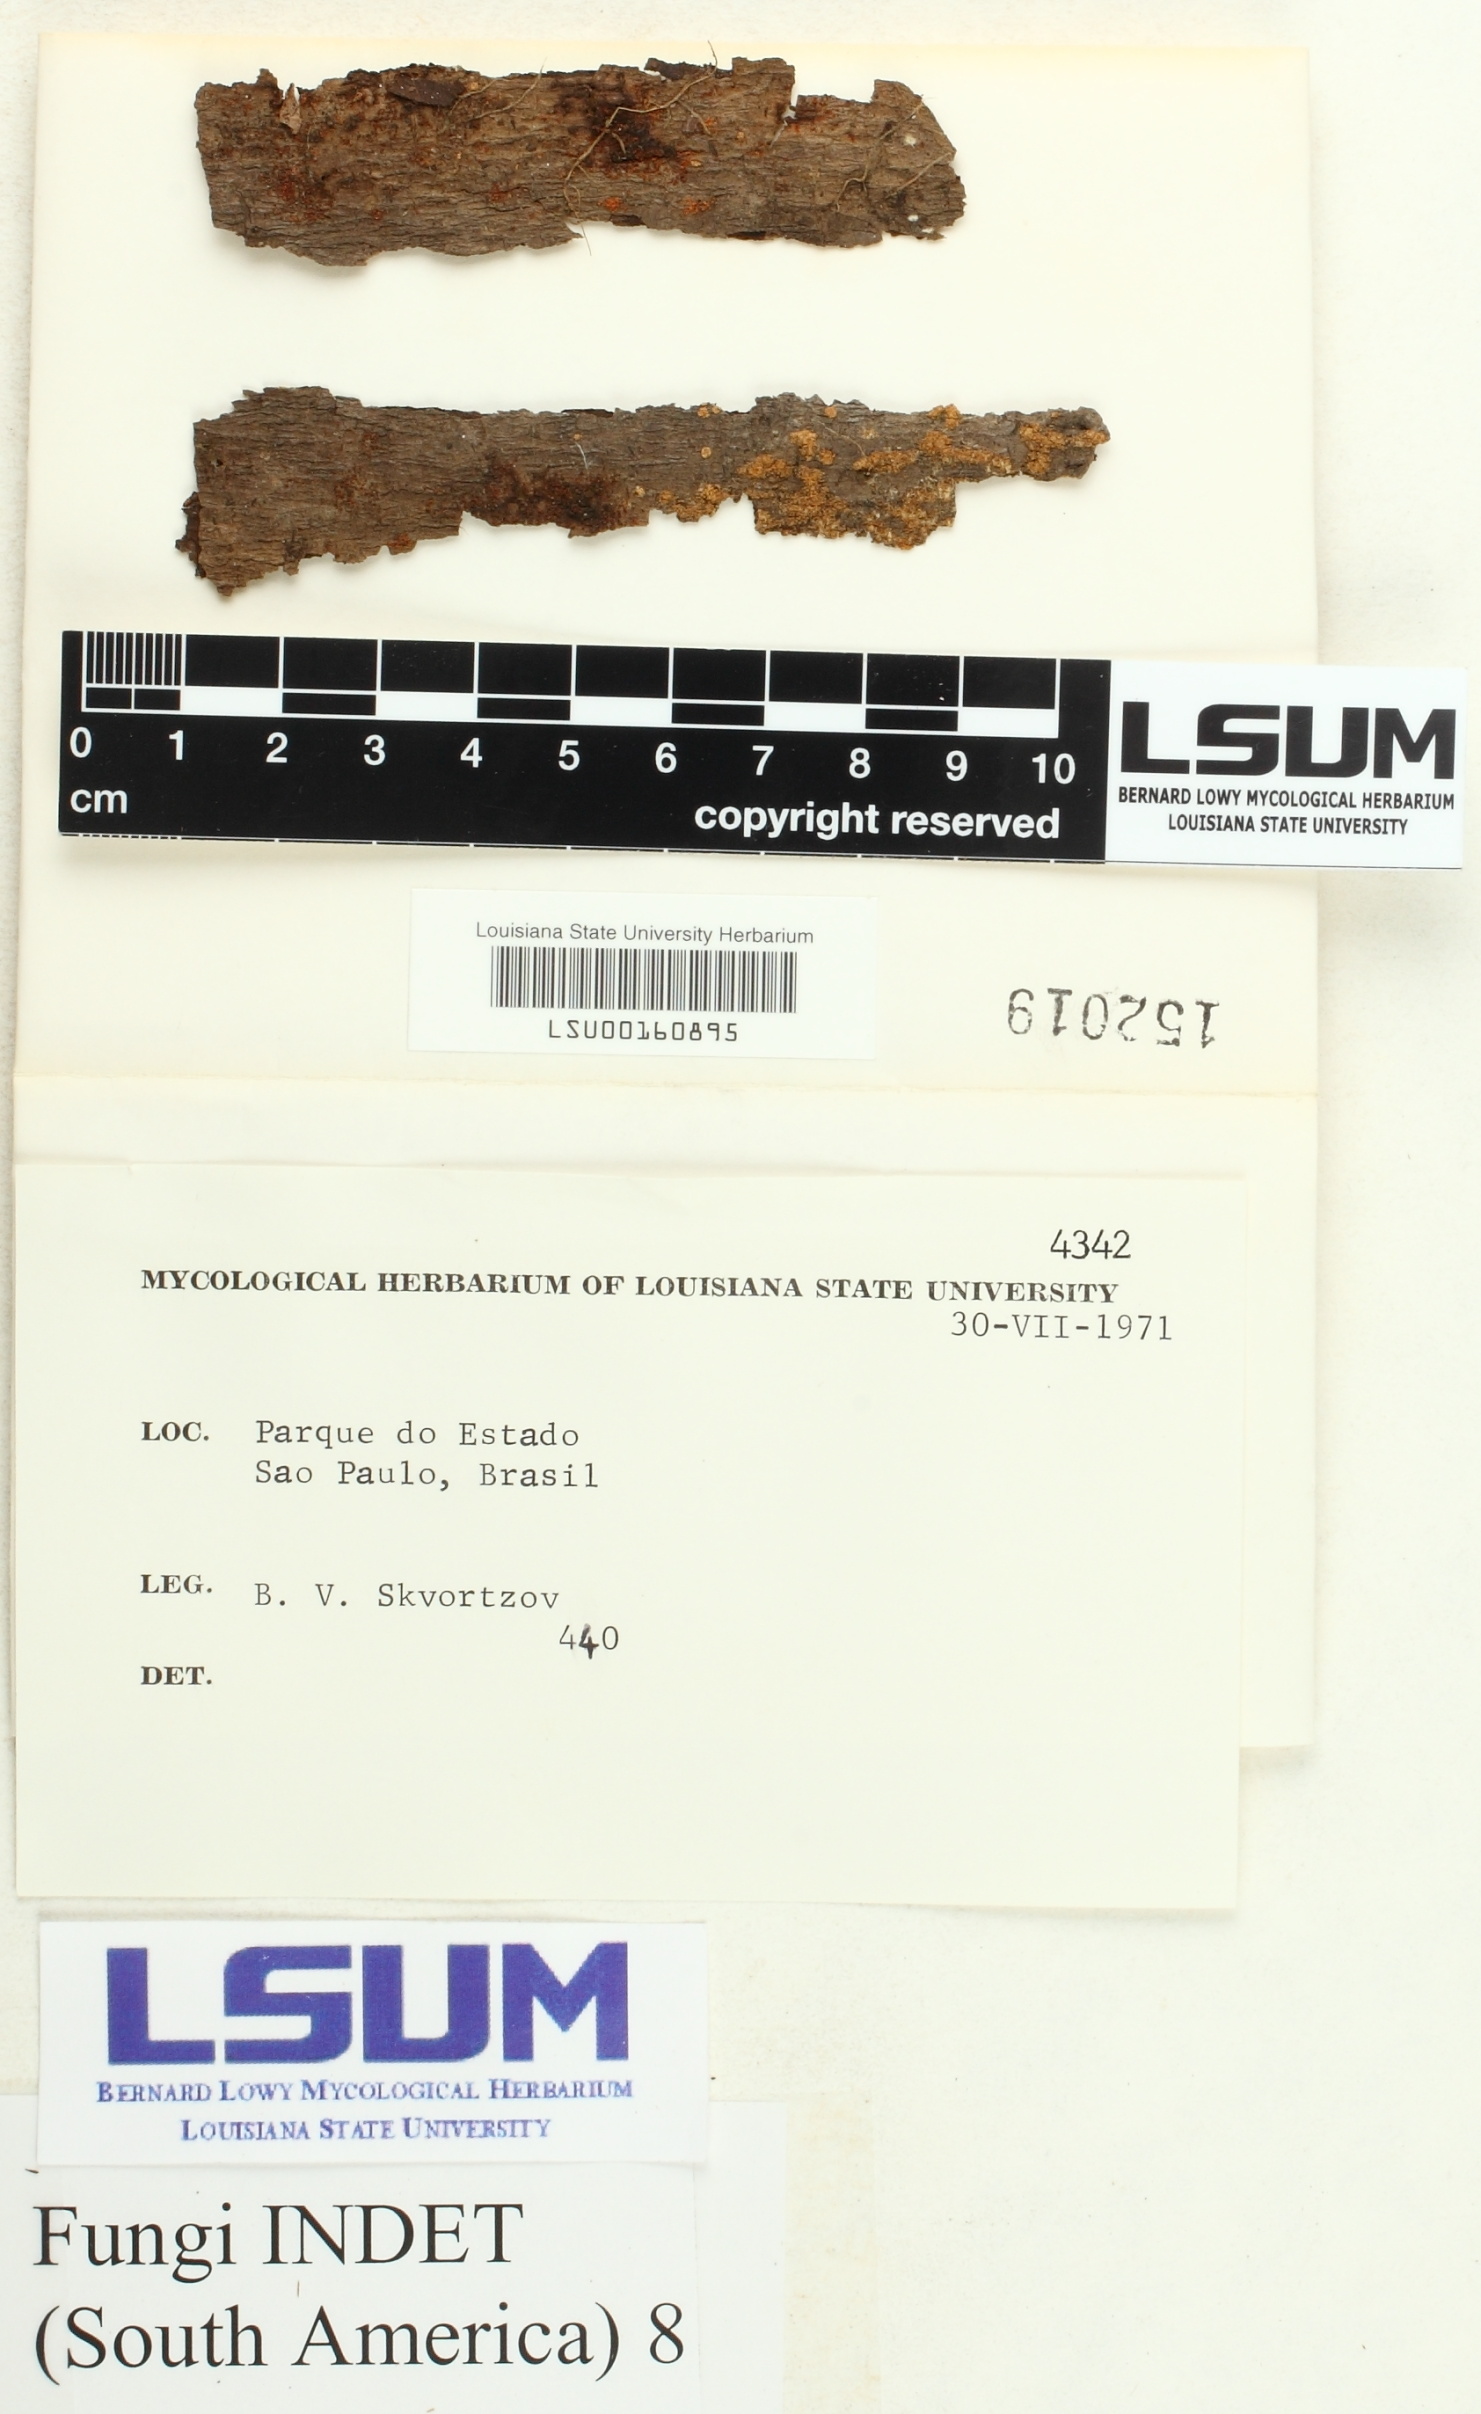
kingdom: Fungi
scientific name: Fungi
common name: Fungi
